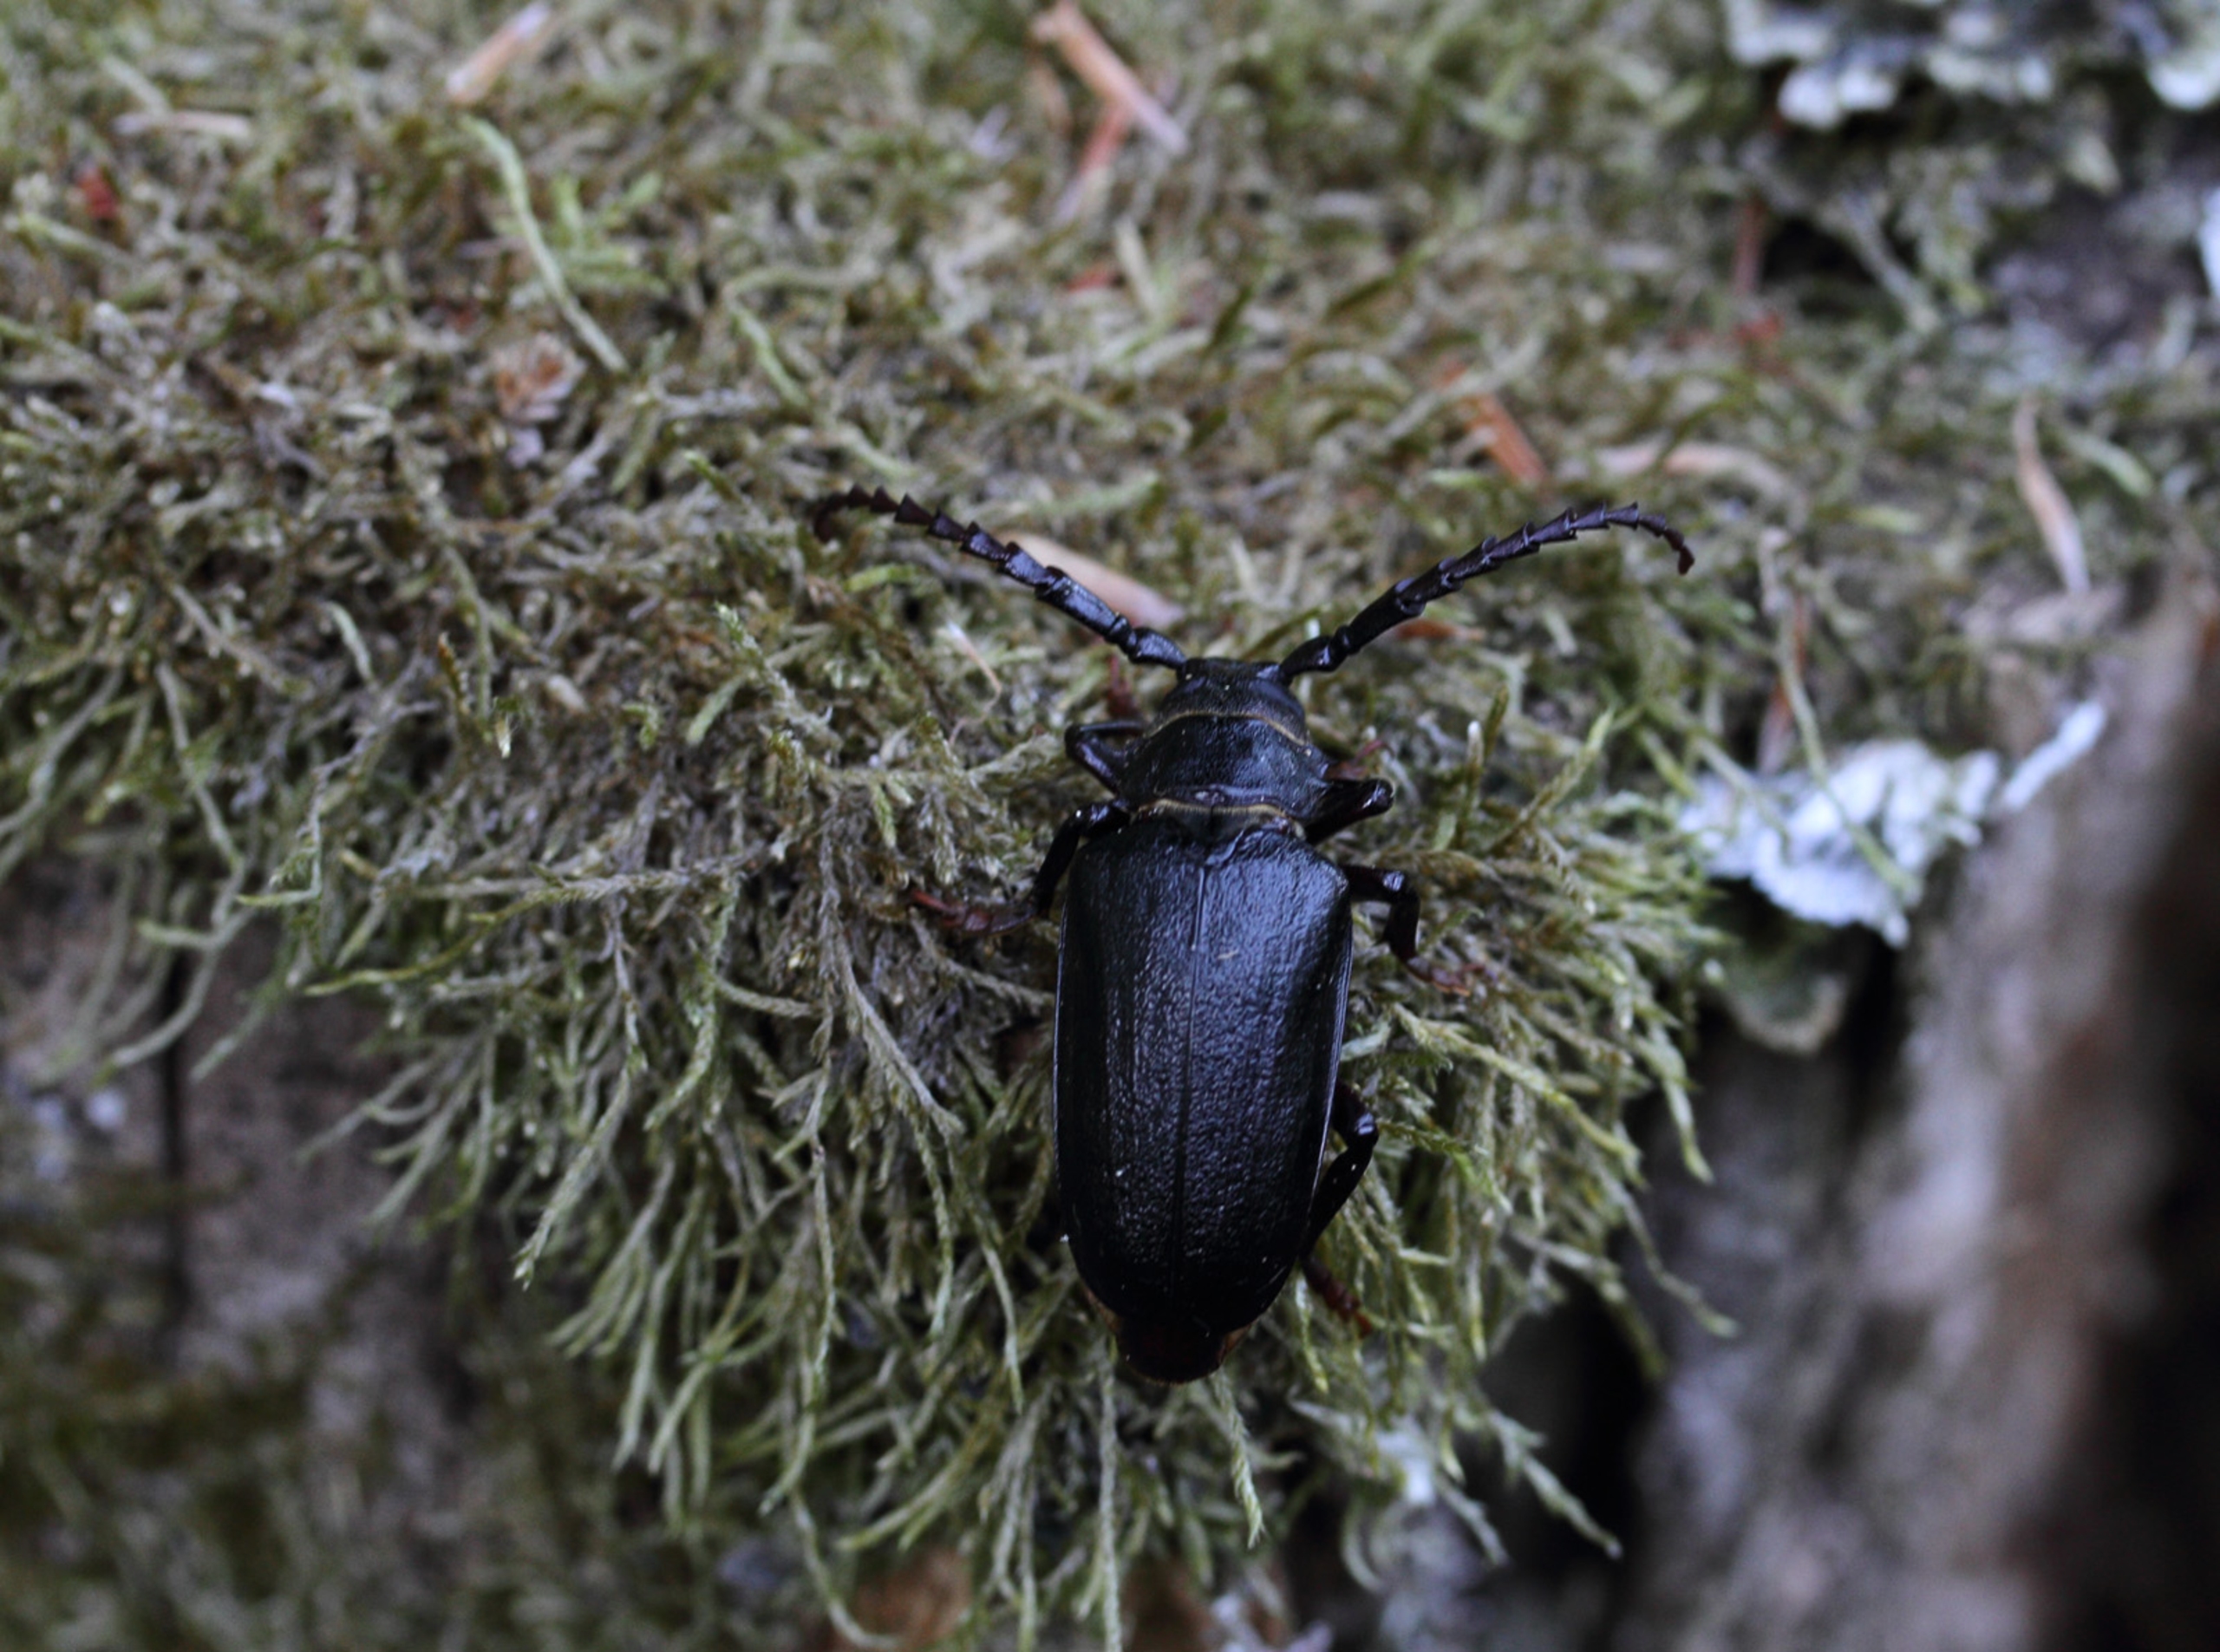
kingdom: Animalia
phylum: Arthropoda
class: Insecta
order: Coleoptera
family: Cerambycidae
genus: Prionus
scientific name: Prionus coriarius
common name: Garver
